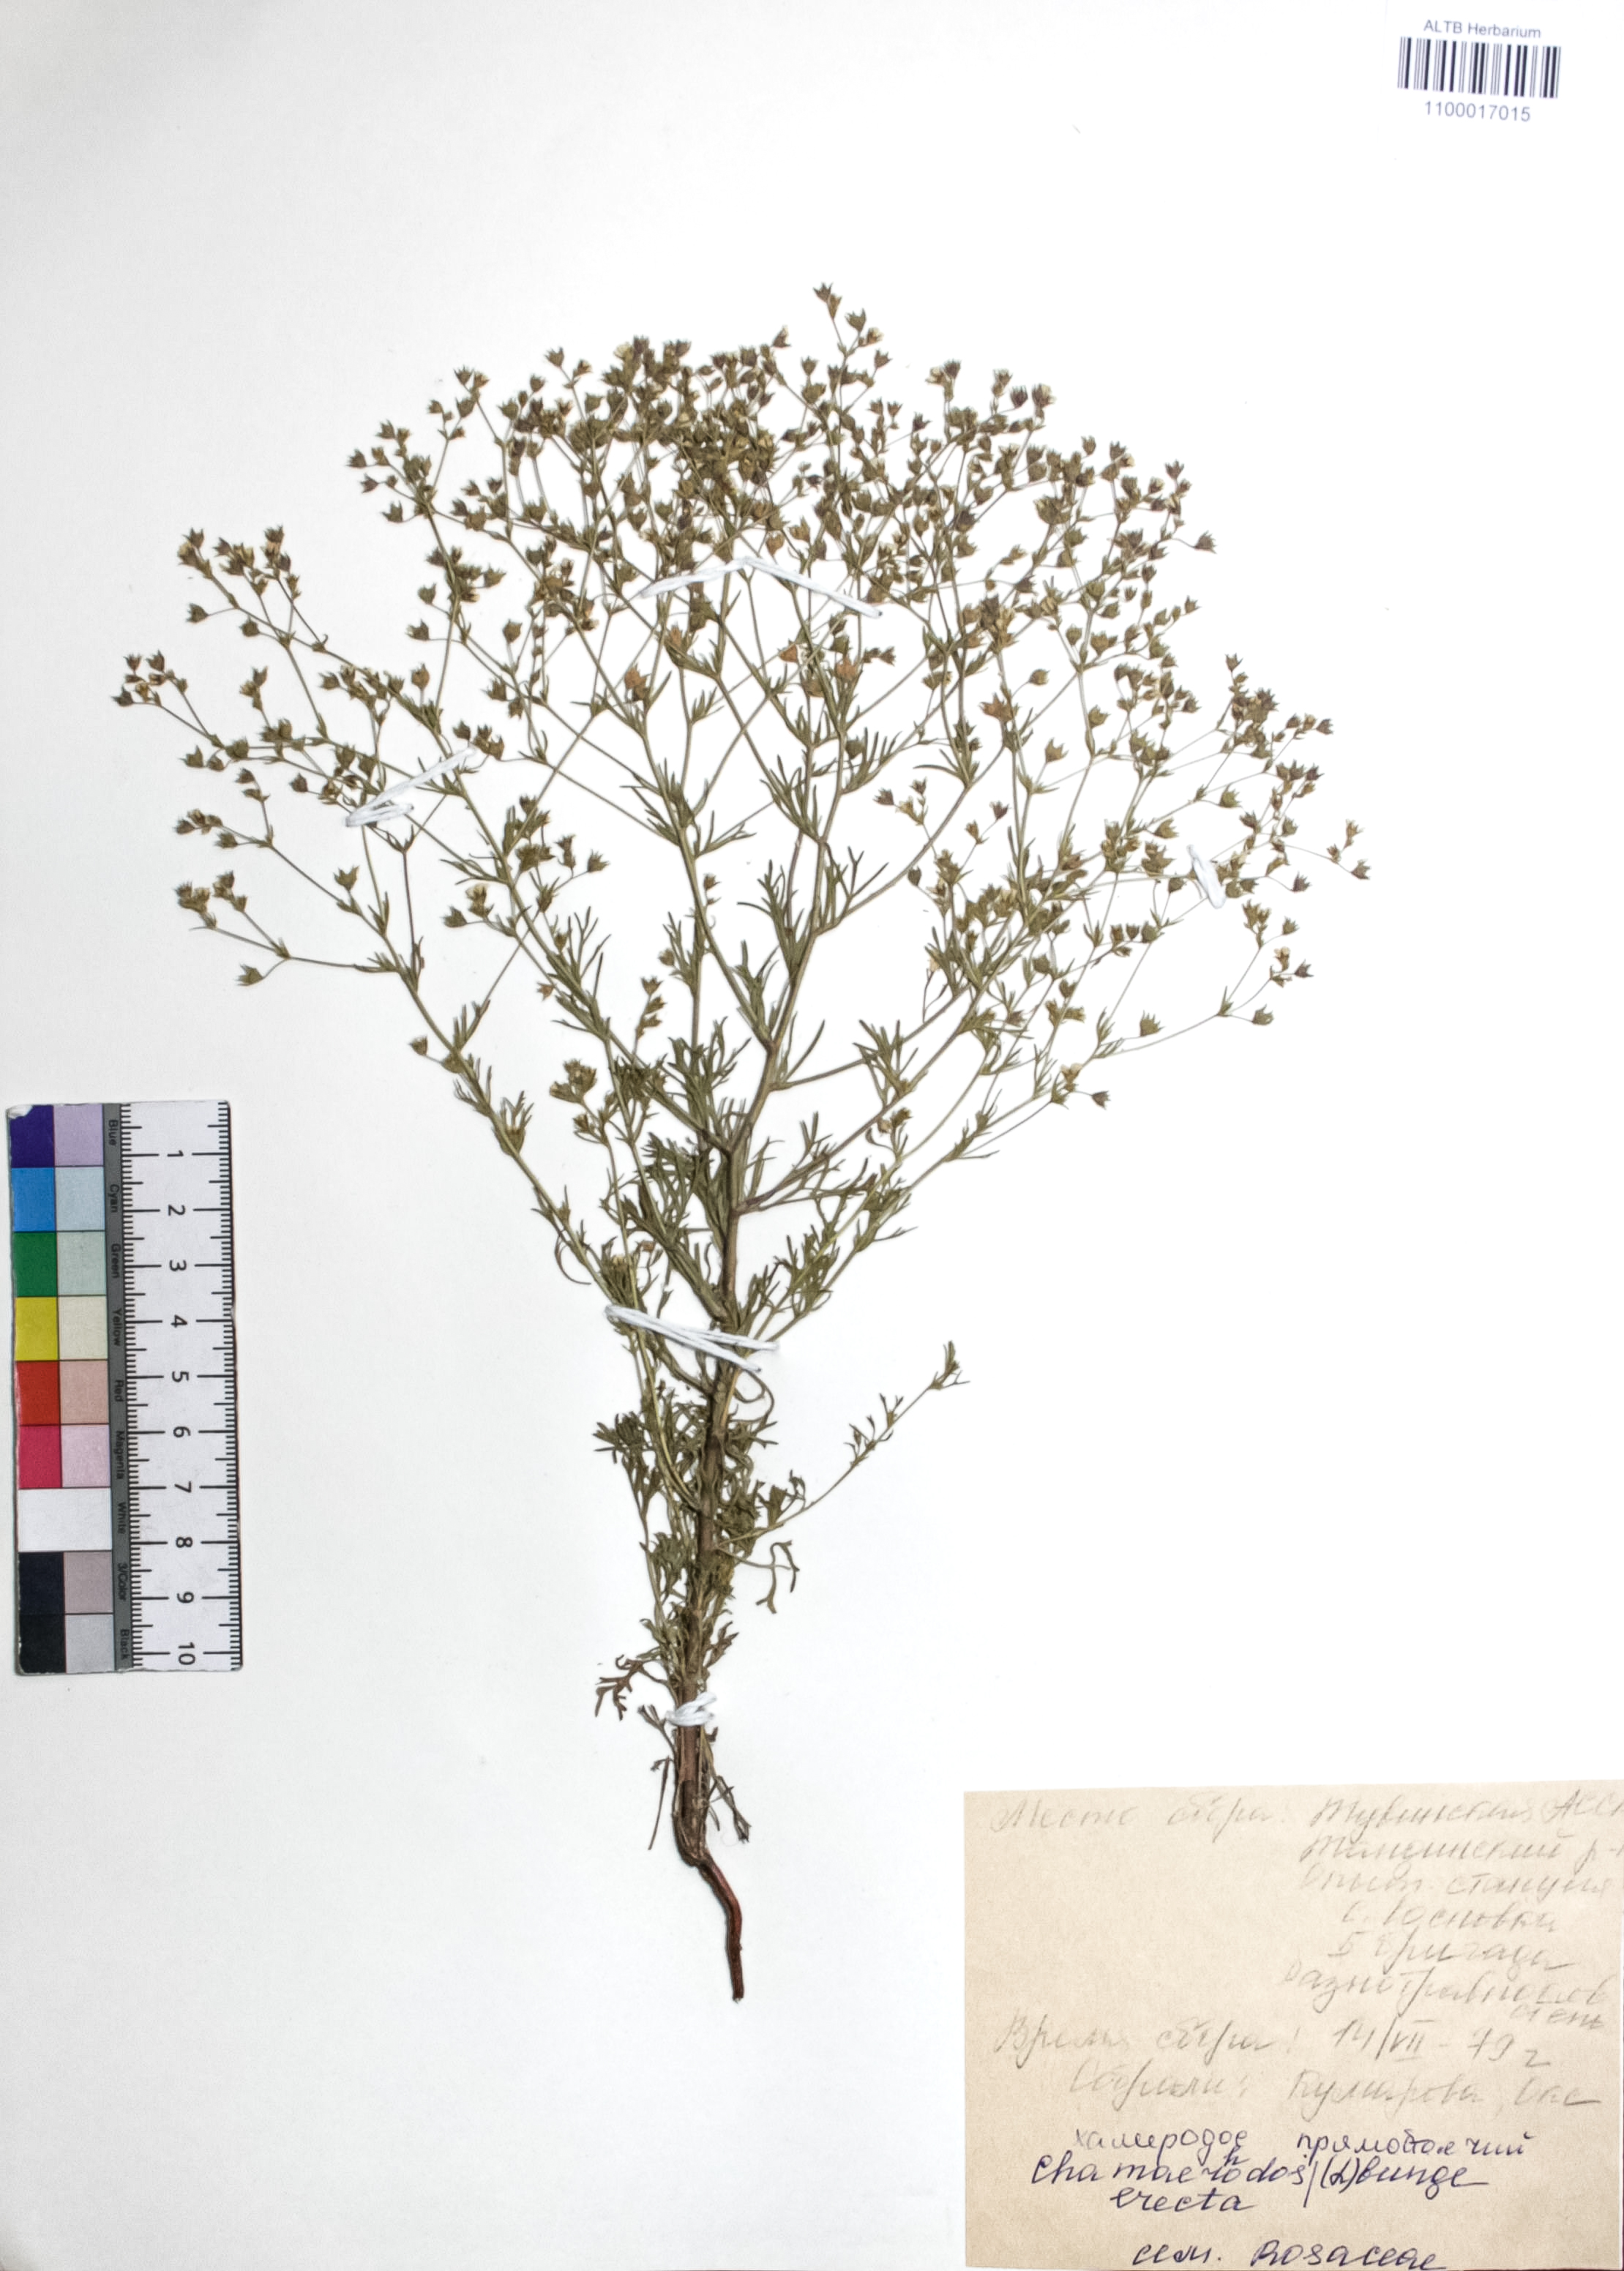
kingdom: Plantae
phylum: Tracheophyta
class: Magnoliopsida
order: Rosales
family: Rosaceae
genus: Chamaerhodos
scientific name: Chamaerhodos erecta
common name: American chamaerhodos
